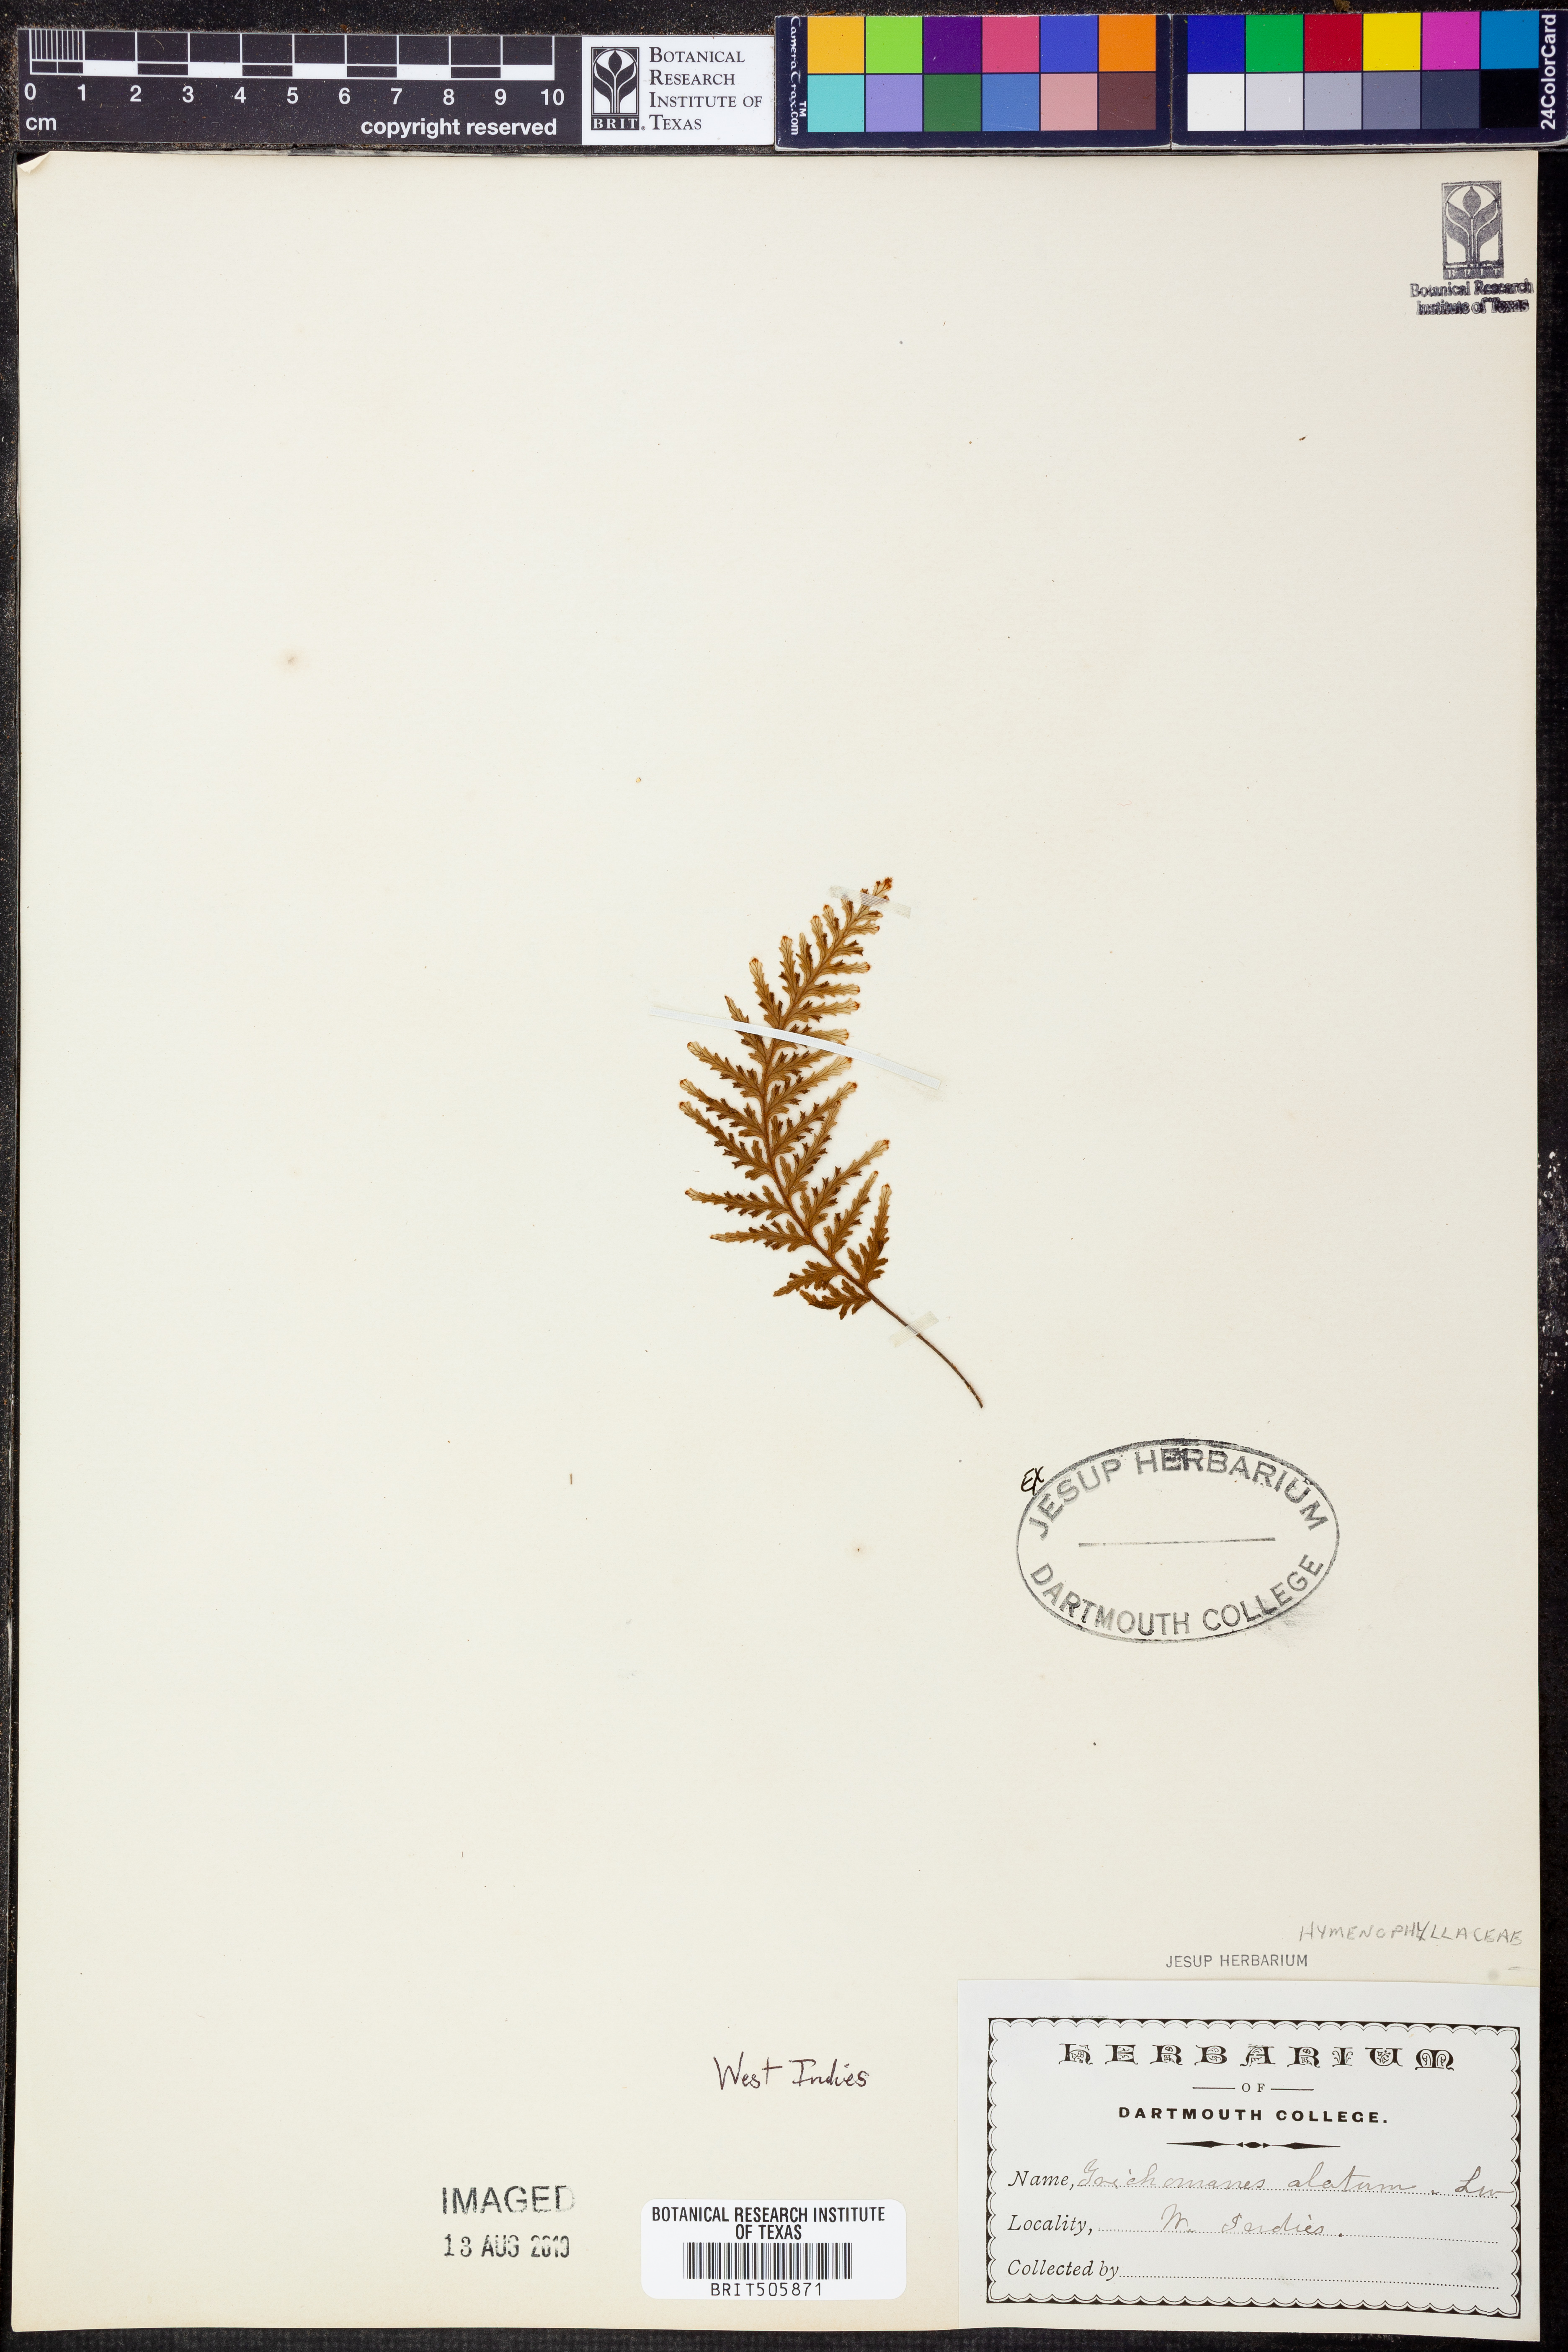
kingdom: Plantae
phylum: Tracheophyta
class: Polypodiopsida
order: Hymenophyllales
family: Hymenophyllaceae
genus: Trichomanes
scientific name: Trichomanes alatum
